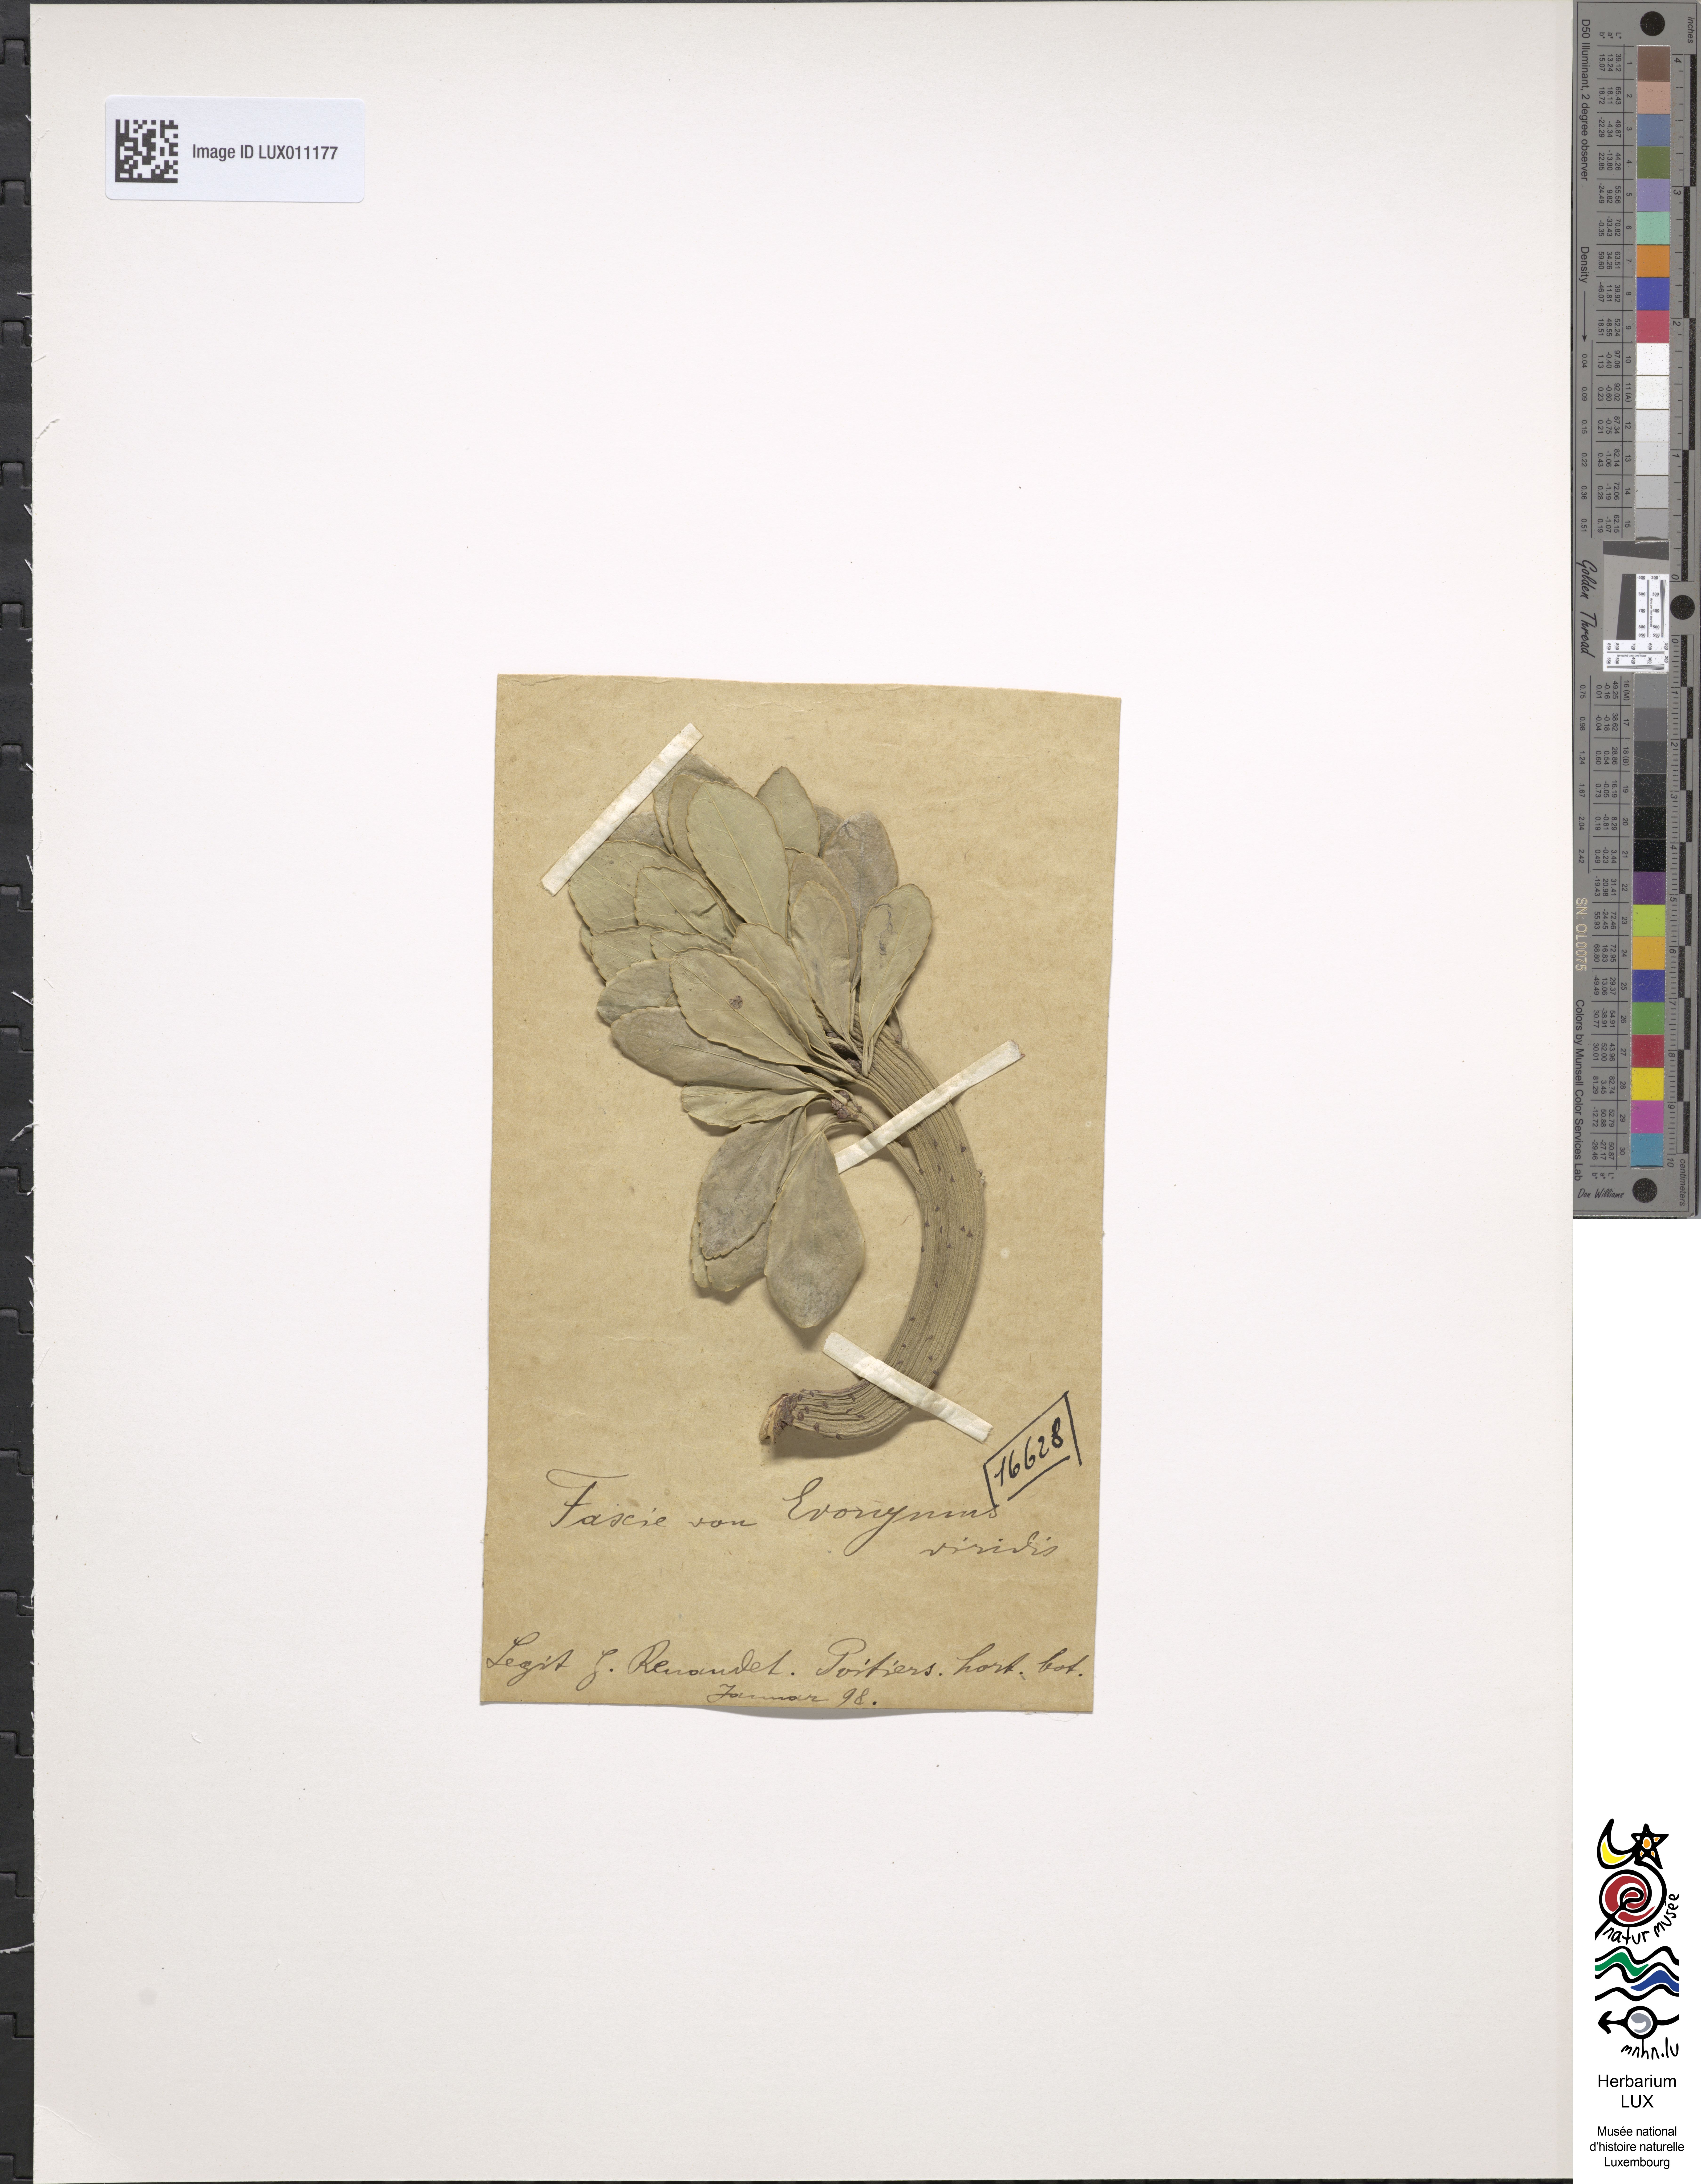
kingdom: Plantae
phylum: Tracheophyta
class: Magnoliopsida
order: Celastrales
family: Celastraceae
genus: Euonymus
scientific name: Euonymus
